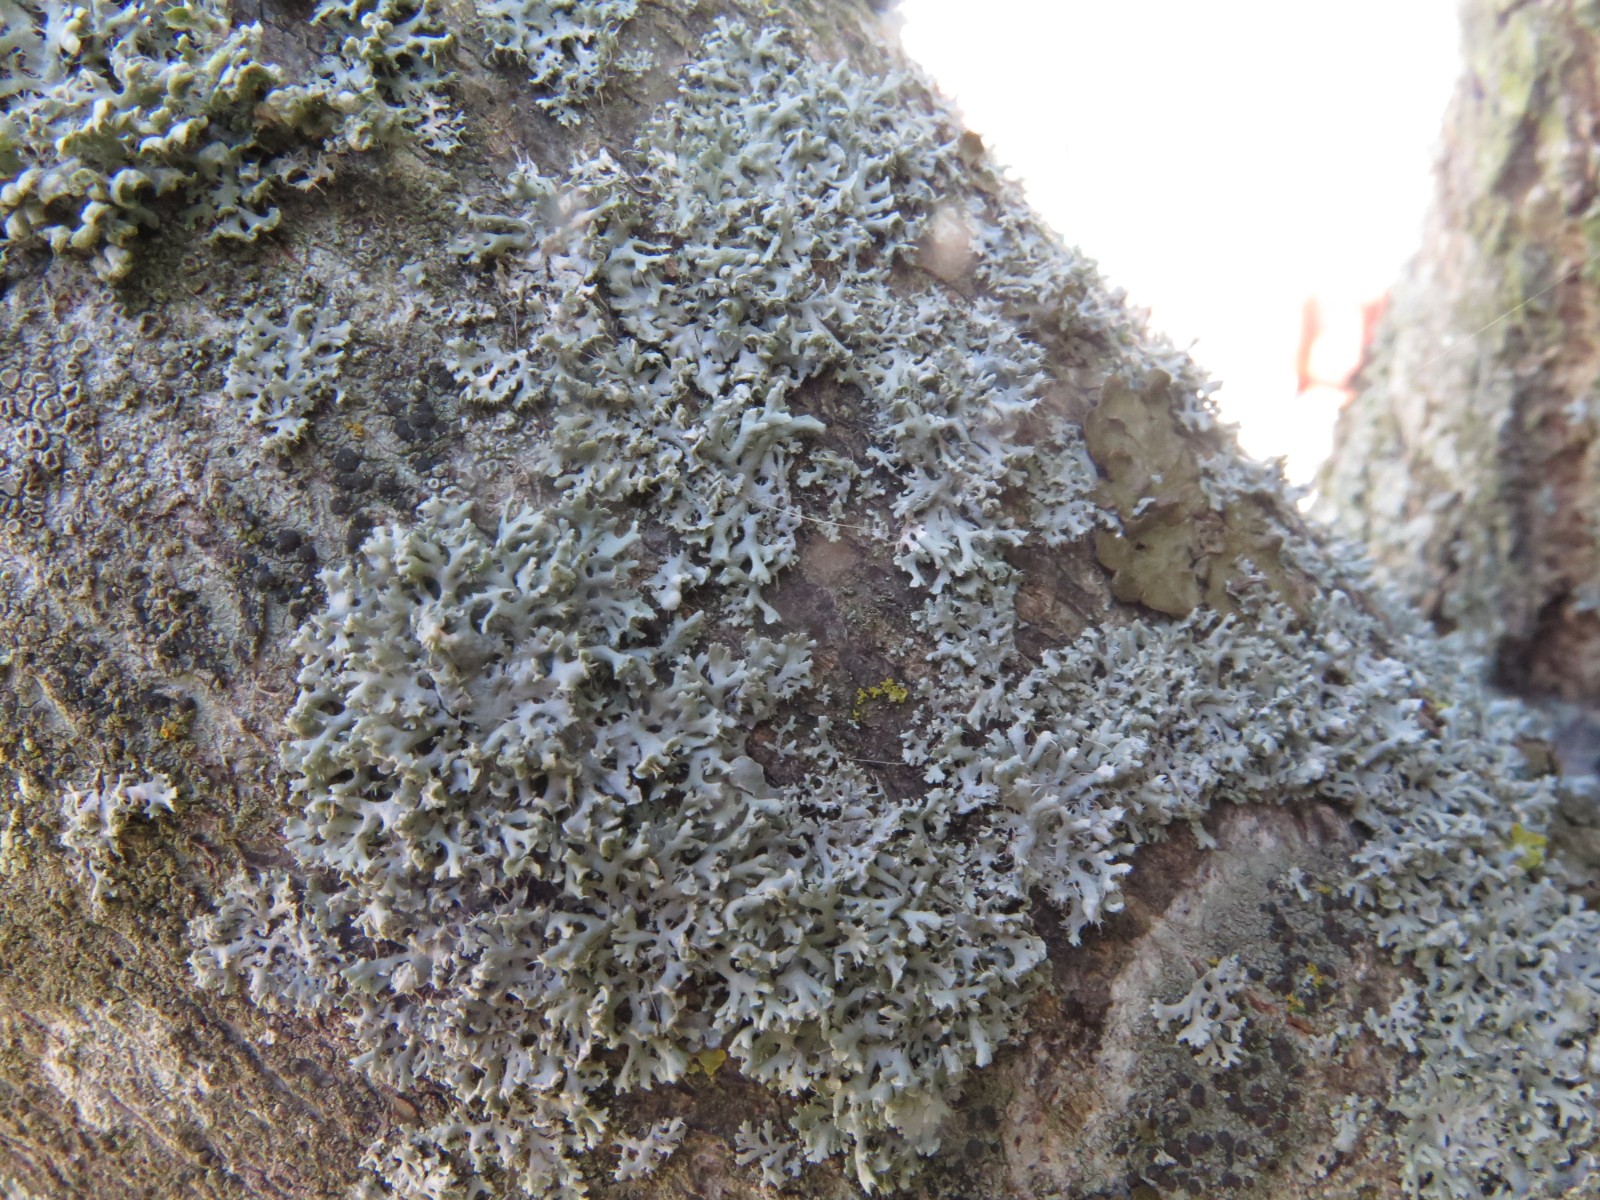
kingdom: Fungi
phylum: Ascomycota
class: Lecanoromycetes
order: Caliciales
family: Physciaceae
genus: Physcia
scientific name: Physcia adscendens
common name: hætte-rosetlav
